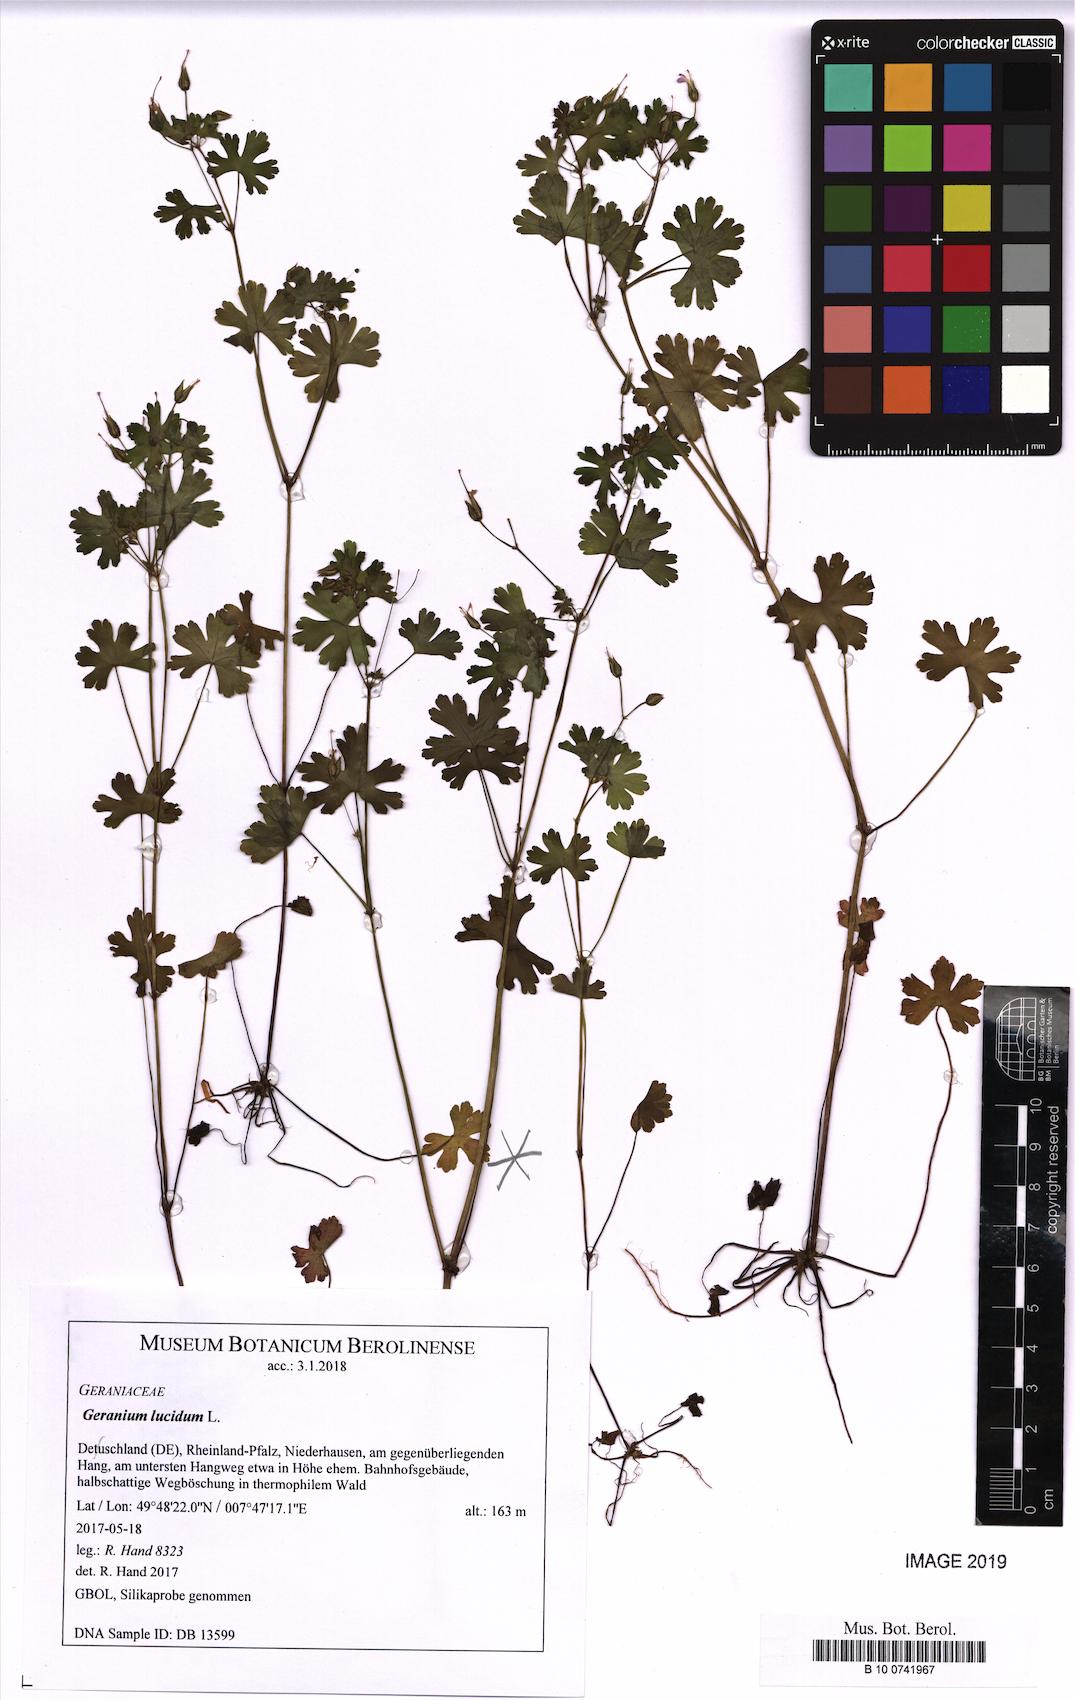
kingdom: Plantae
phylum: Tracheophyta
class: Magnoliopsida
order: Geraniales
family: Geraniaceae
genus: Geranium
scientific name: Geranium lucidum
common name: Shining crane's-bill
